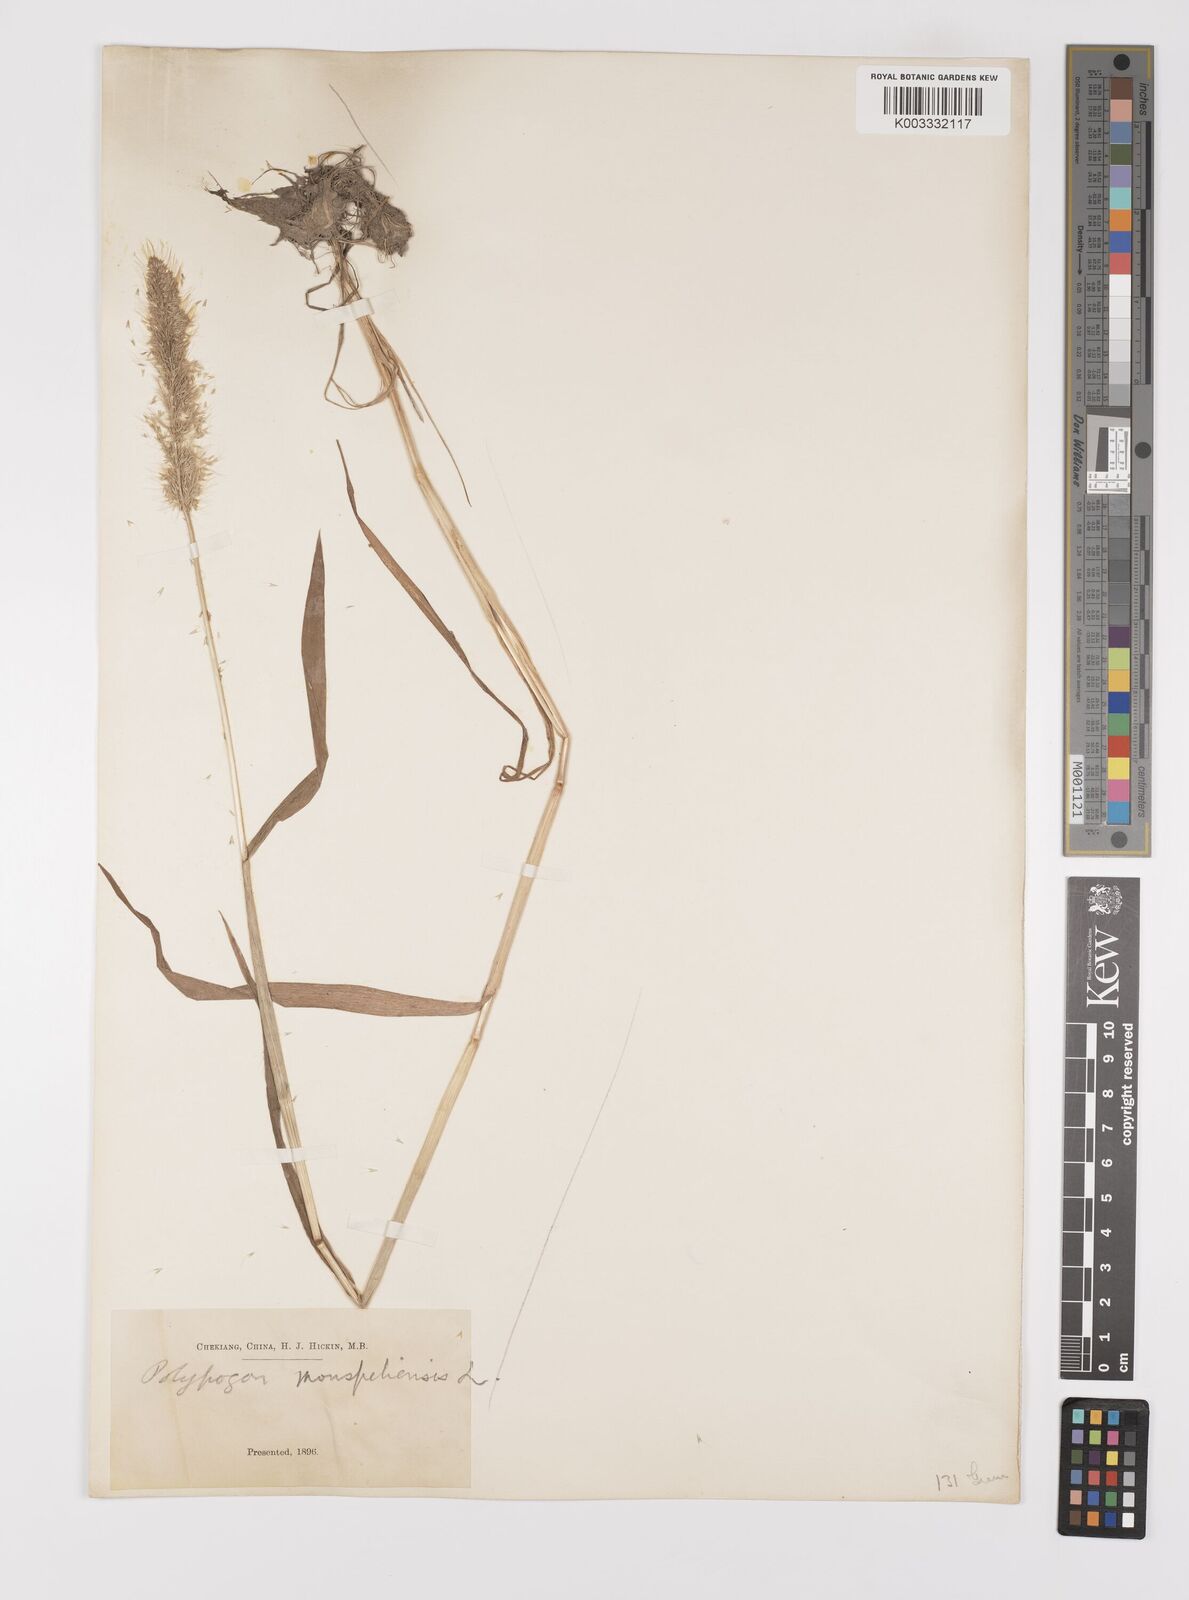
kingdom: Plantae
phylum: Tracheophyta
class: Liliopsida
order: Poales
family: Poaceae
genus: Polypogon
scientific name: Polypogon monspeliensis
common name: Annual rabbitsfoot grass
